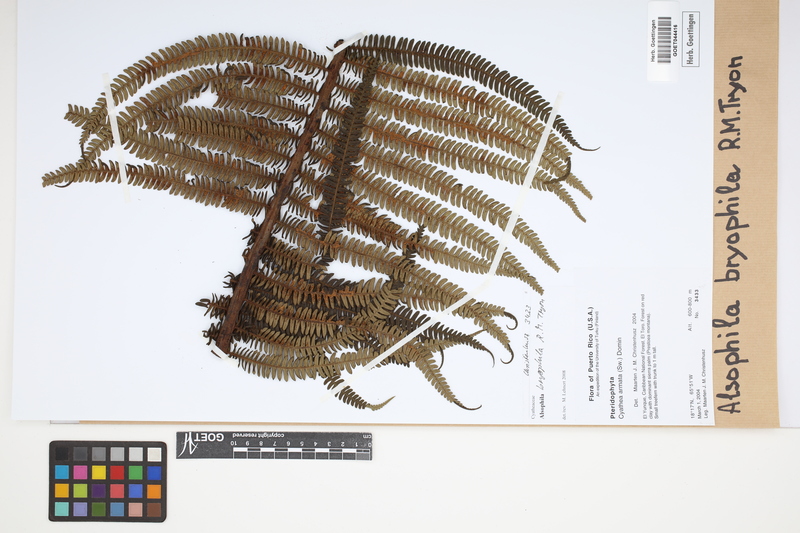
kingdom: Plantae
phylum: Tracheophyta
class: Polypodiopsida
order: Cyatheales
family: Cyatheaceae
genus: Alsophila
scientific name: Alsophila bryophila
